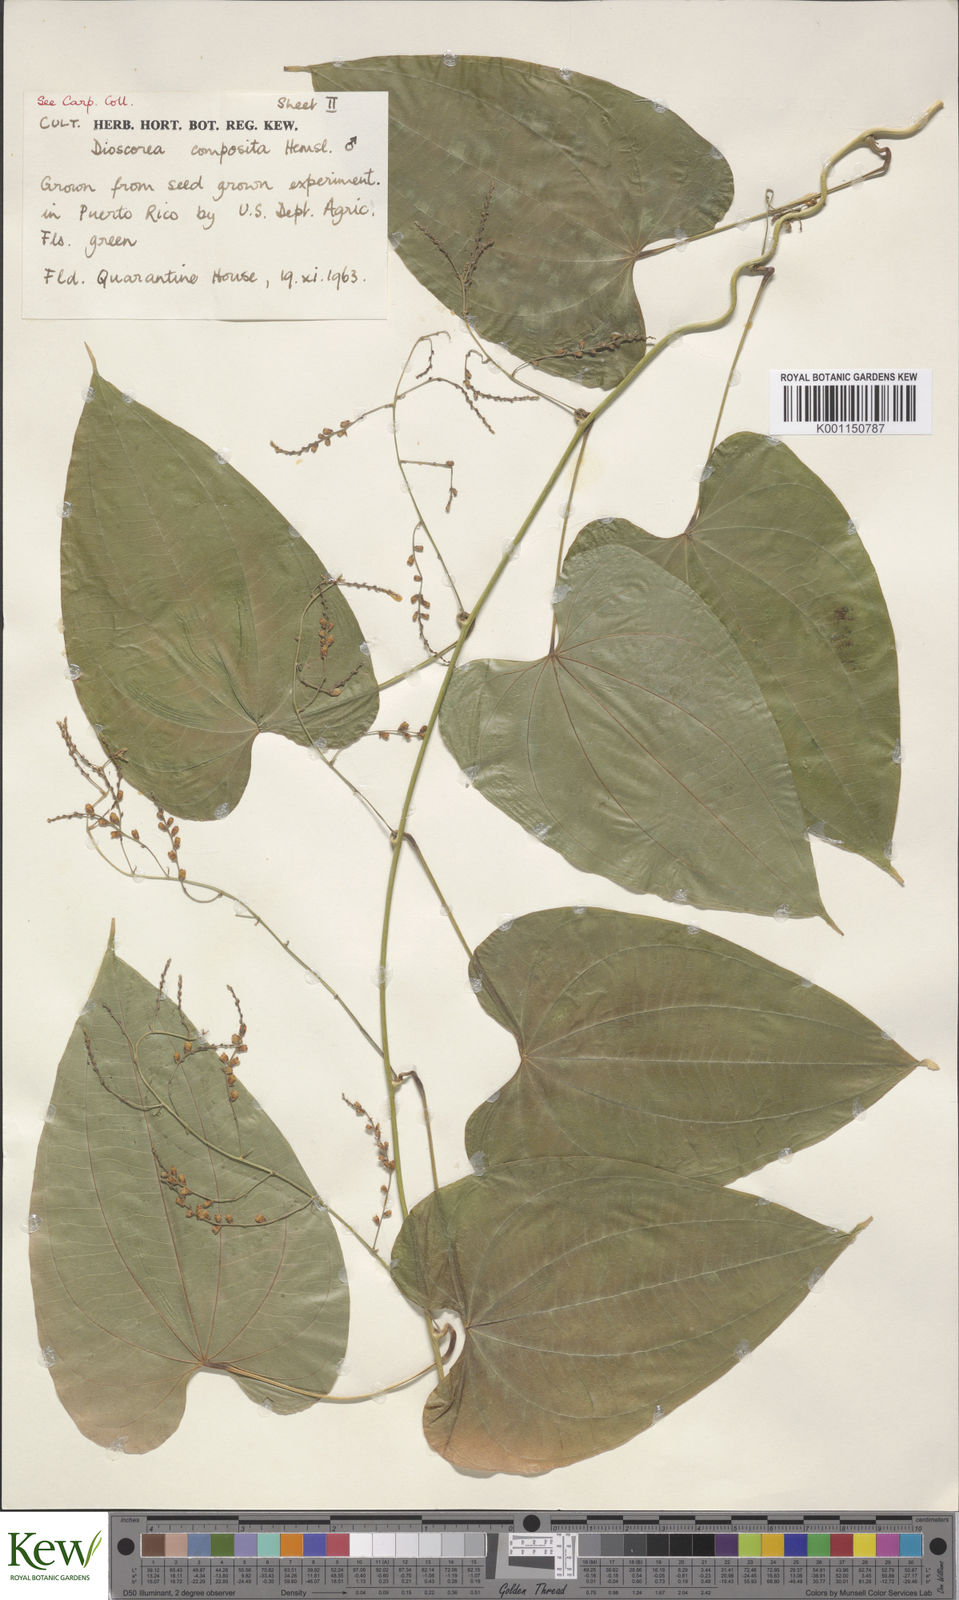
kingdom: Plantae
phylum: Tracheophyta
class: Liliopsida
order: Dioscoreales
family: Dioscoreaceae
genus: Dioscorea
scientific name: Dioscorea composita
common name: Barbasco
